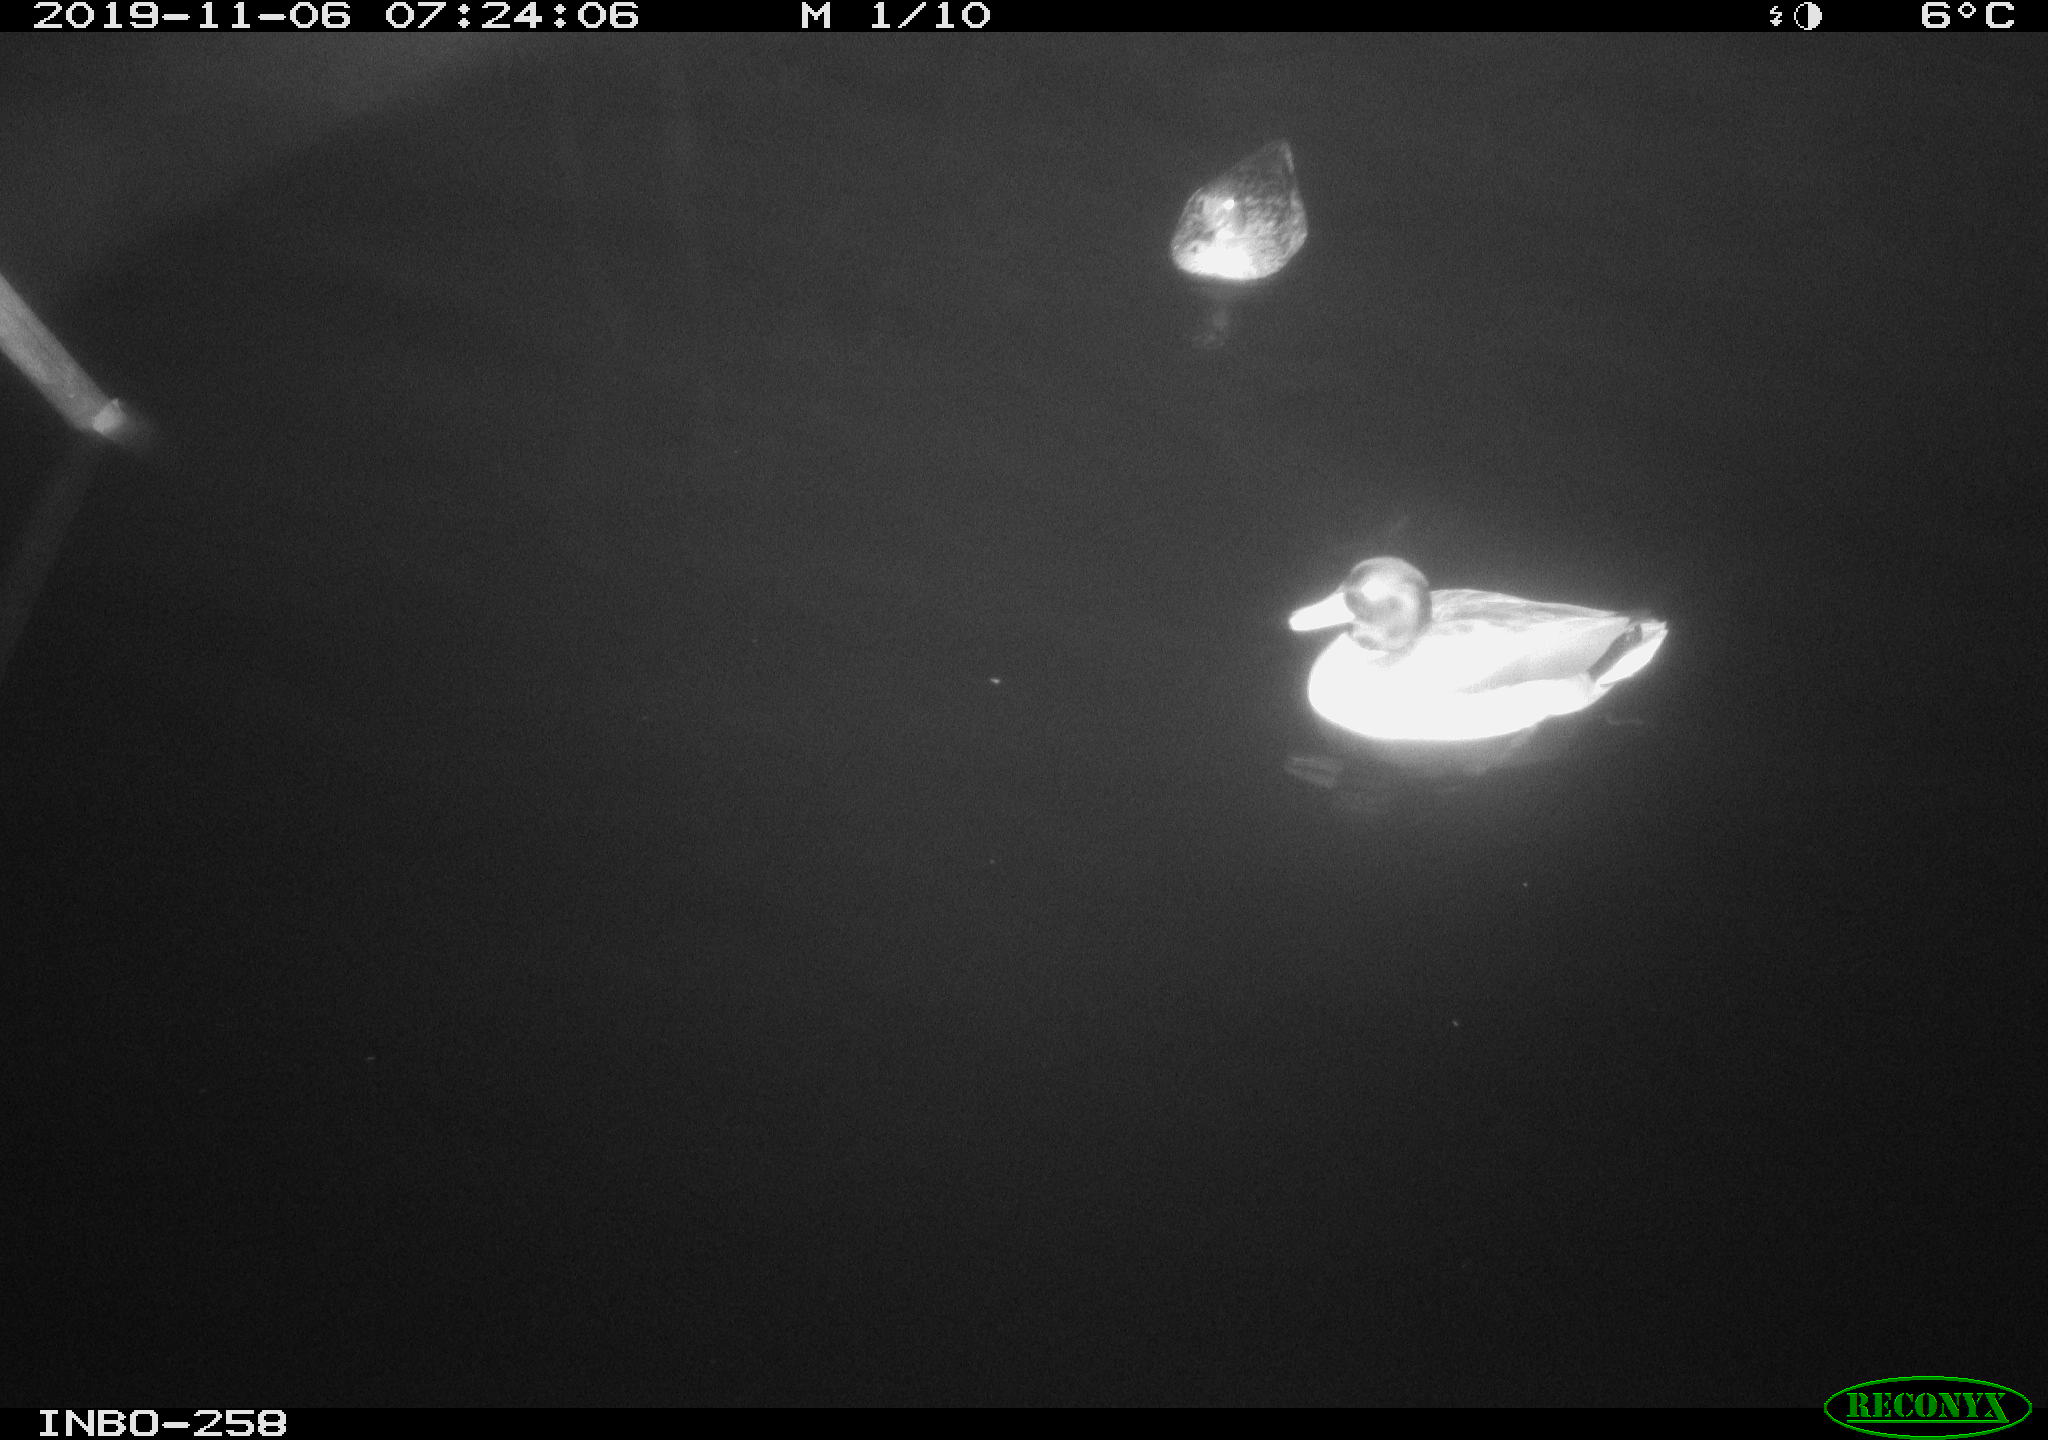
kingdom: Animalia
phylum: Chordata
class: Aves
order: Anseriformes
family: Anatidae
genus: Anas
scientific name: Anas platyrhynchos
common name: Mallard
